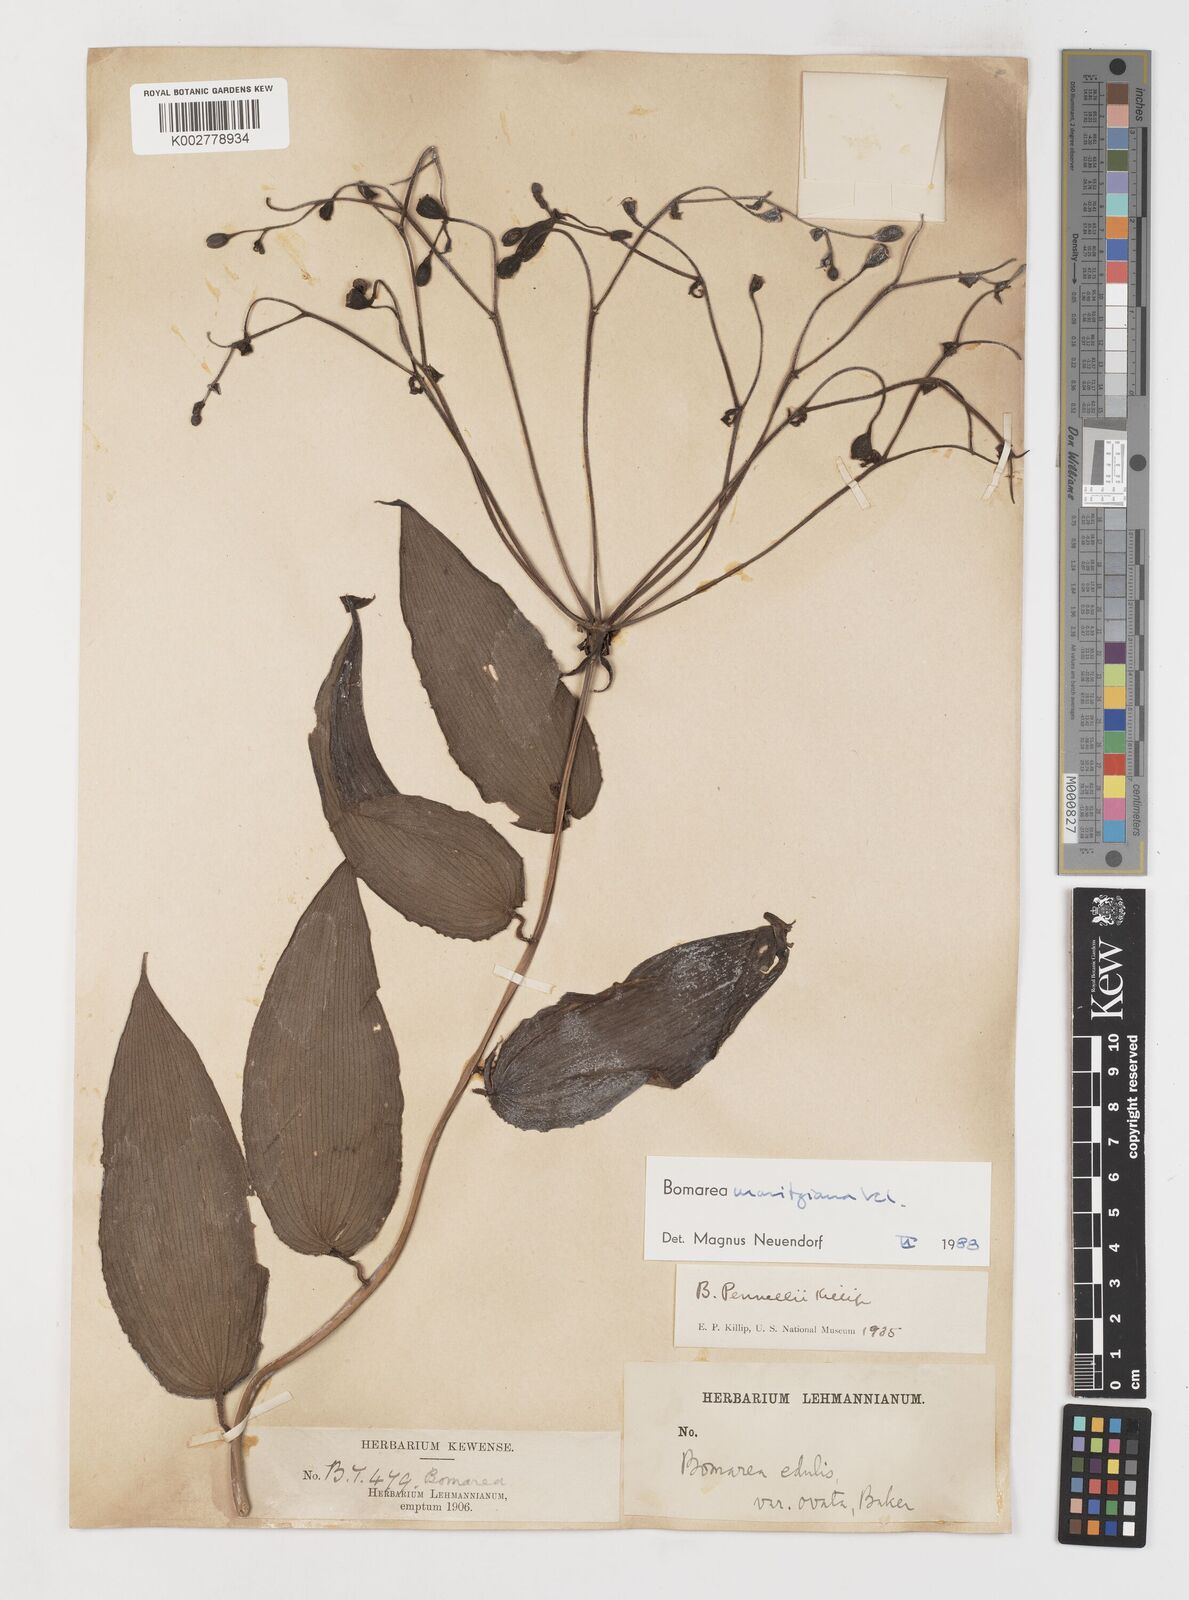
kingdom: Plantae
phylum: Tracheophyta
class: Liliopsida
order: Liliales
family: Alstroemeriaceae
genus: Bomarea
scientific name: Bomarea moritziana
